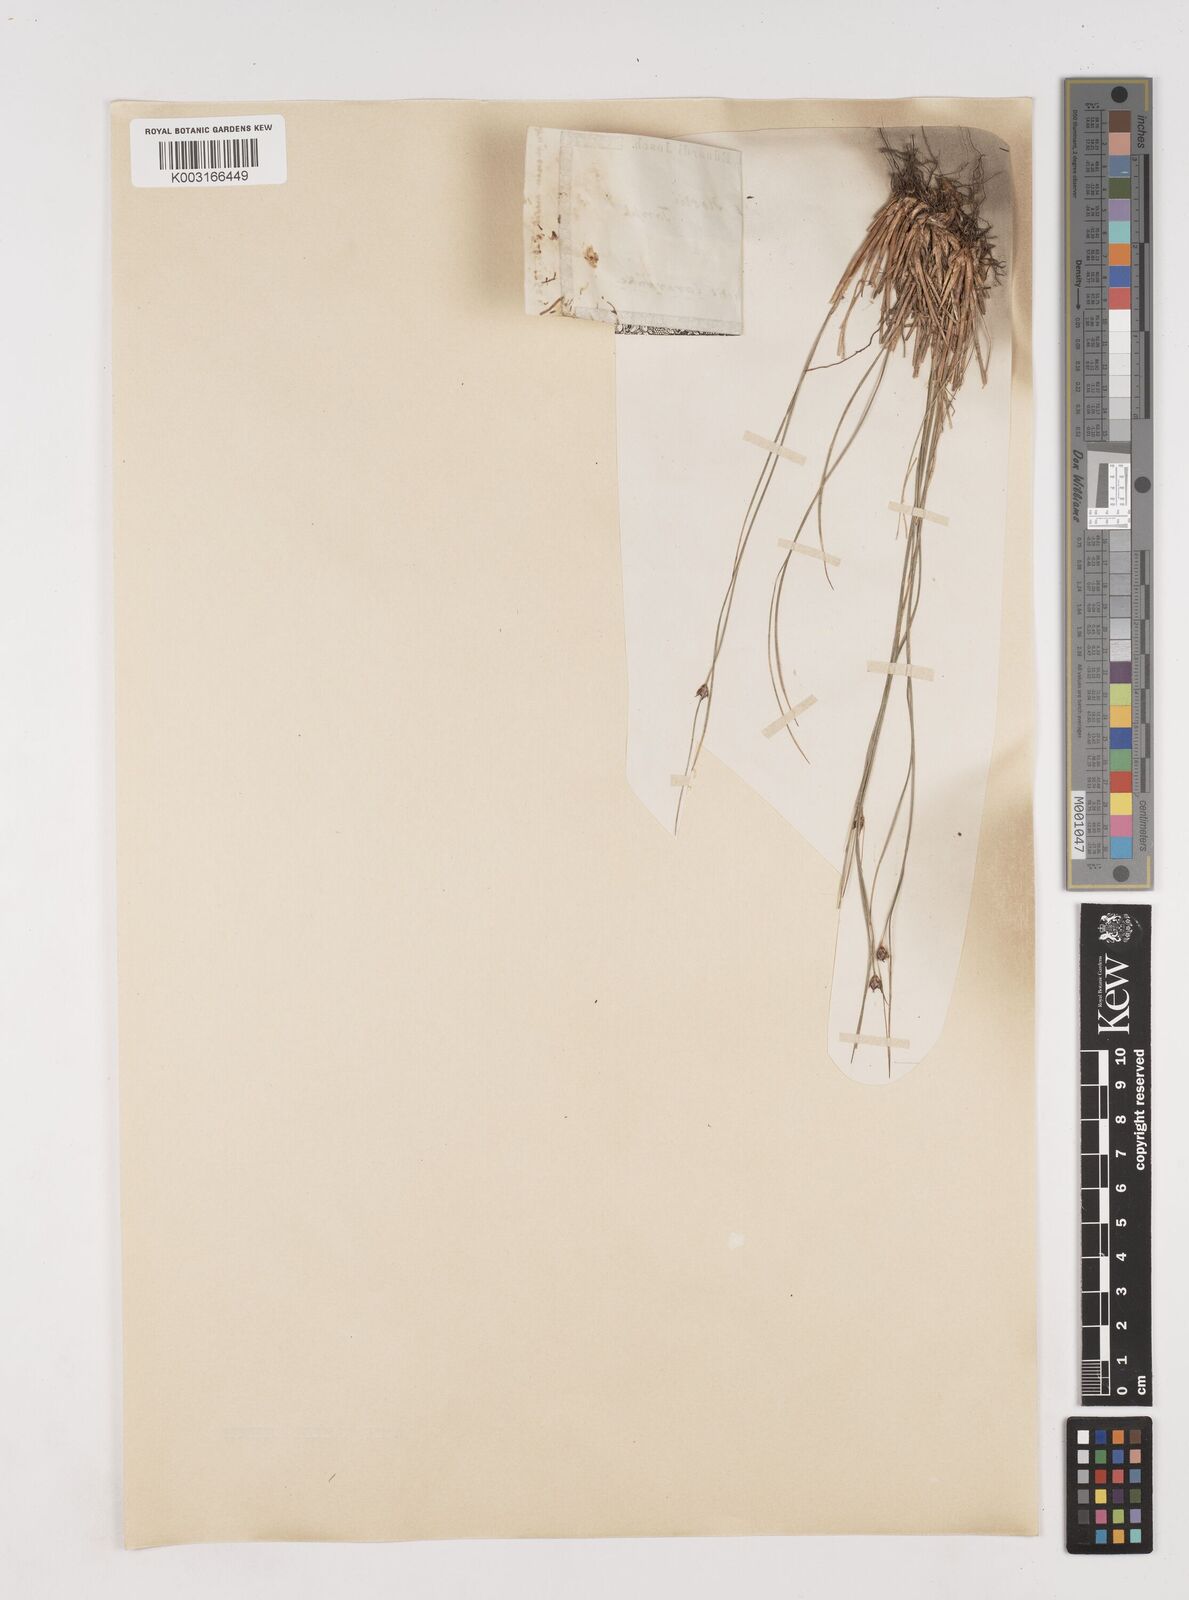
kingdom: Plantae
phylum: Tracheophyta
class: Liliopsida
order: Poales
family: Juncaceae
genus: Oreojuncus
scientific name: Oreojuncus trifidus
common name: Highland rush
